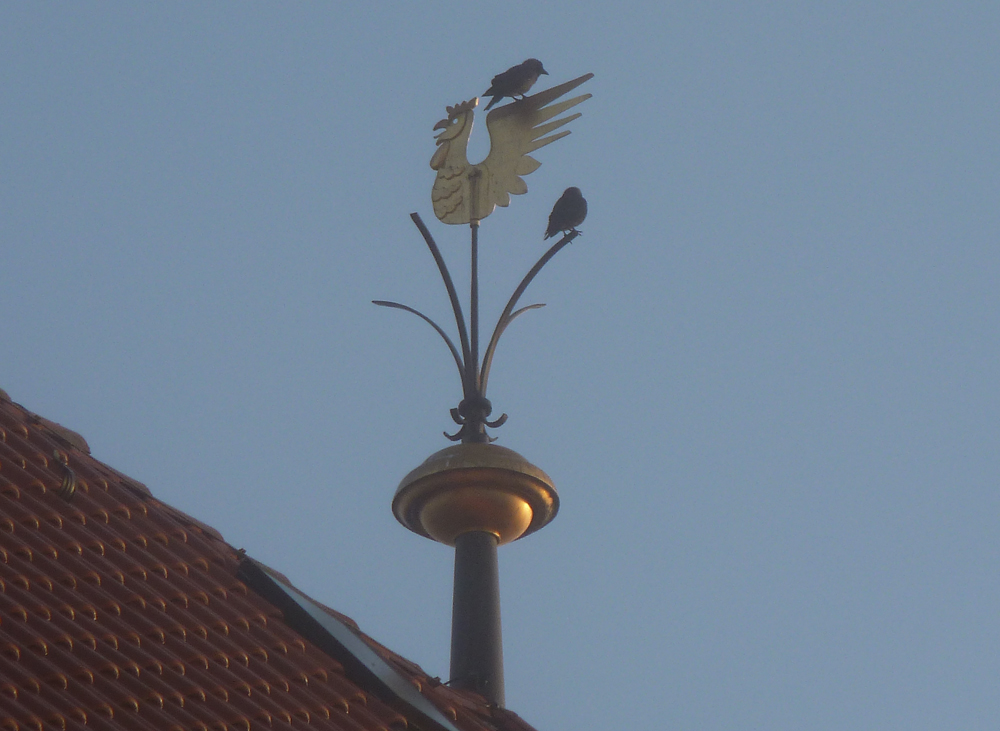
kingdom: Animalia
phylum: Chordata
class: Aves
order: Passeriformes
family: Corvidae
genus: Coloeus
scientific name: Coloeus monedula
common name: Western jackdaw
